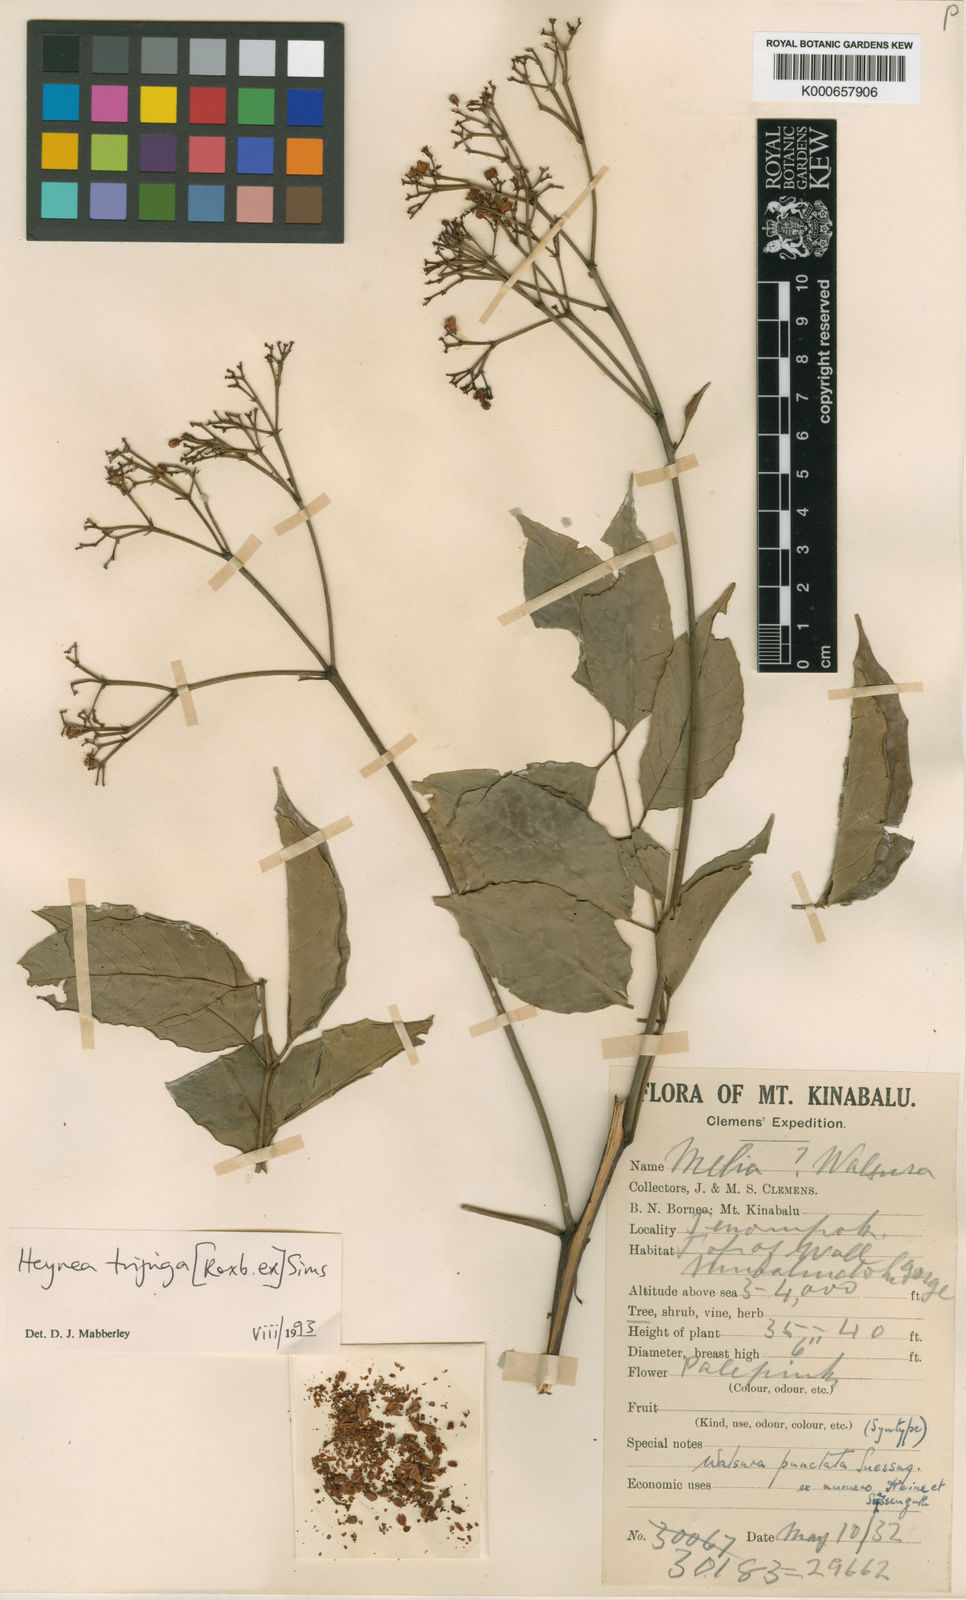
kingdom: Plantae
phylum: Tracheophyta
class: Magnoliopsida
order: Sapindales
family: Meliaceae
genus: Heynea
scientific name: Heynea trijuga
